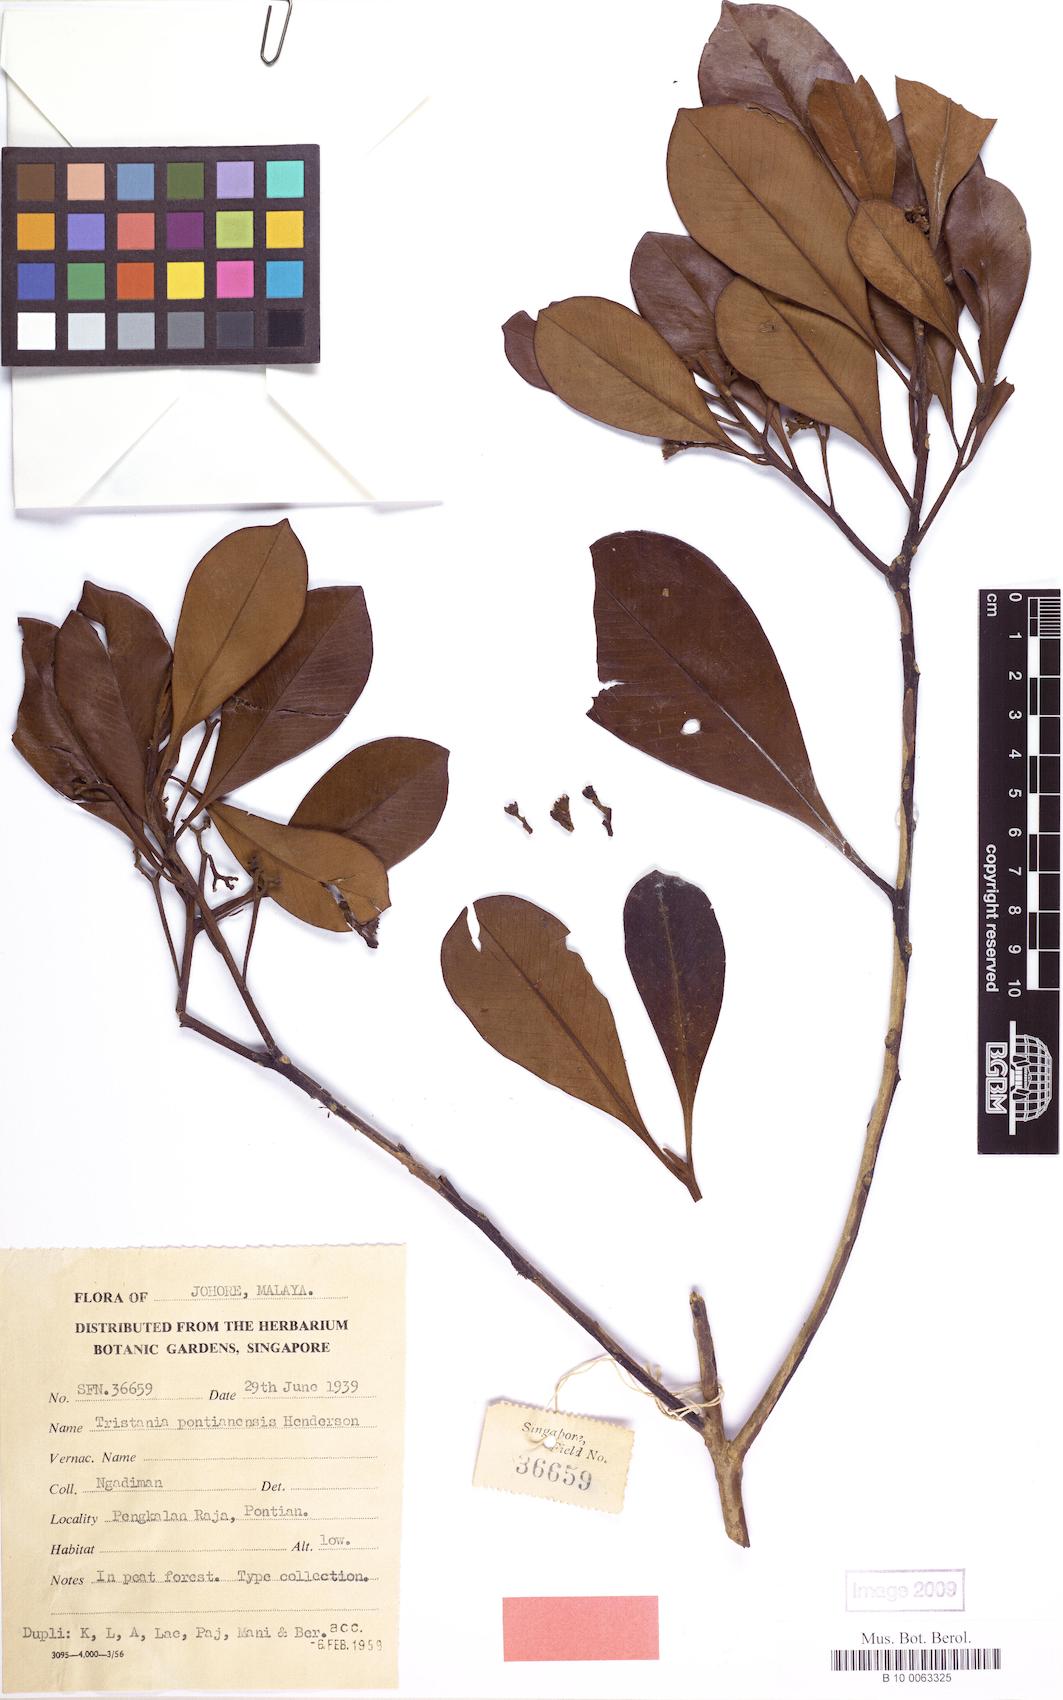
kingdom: Plantae
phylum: Tracheophyta
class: Magnoliopsida
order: Myrtales
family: Myrtaceae
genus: Tristaniopsis
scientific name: Tristaniopsis pontianensis
